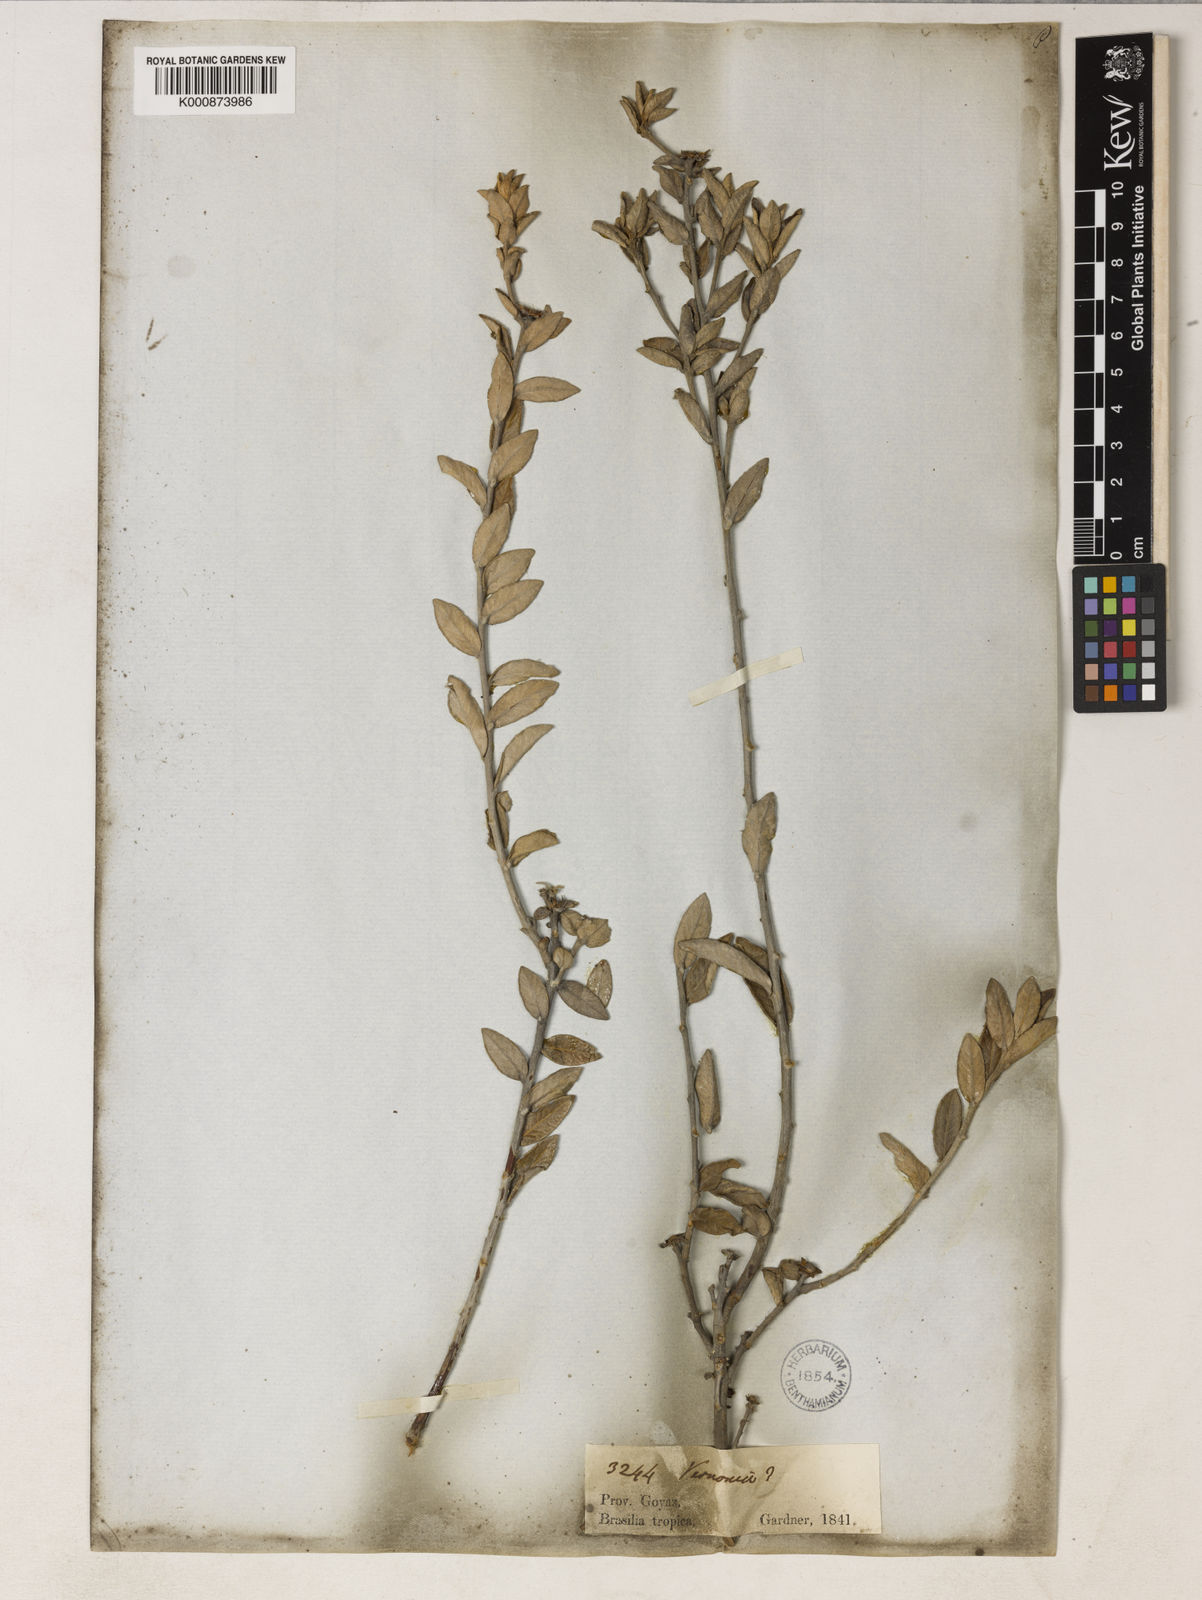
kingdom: Plantae
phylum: Tracheophyta
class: Magnoliopsida
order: Asterales
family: Asteraceae
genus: Vernonia
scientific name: Vernonia
